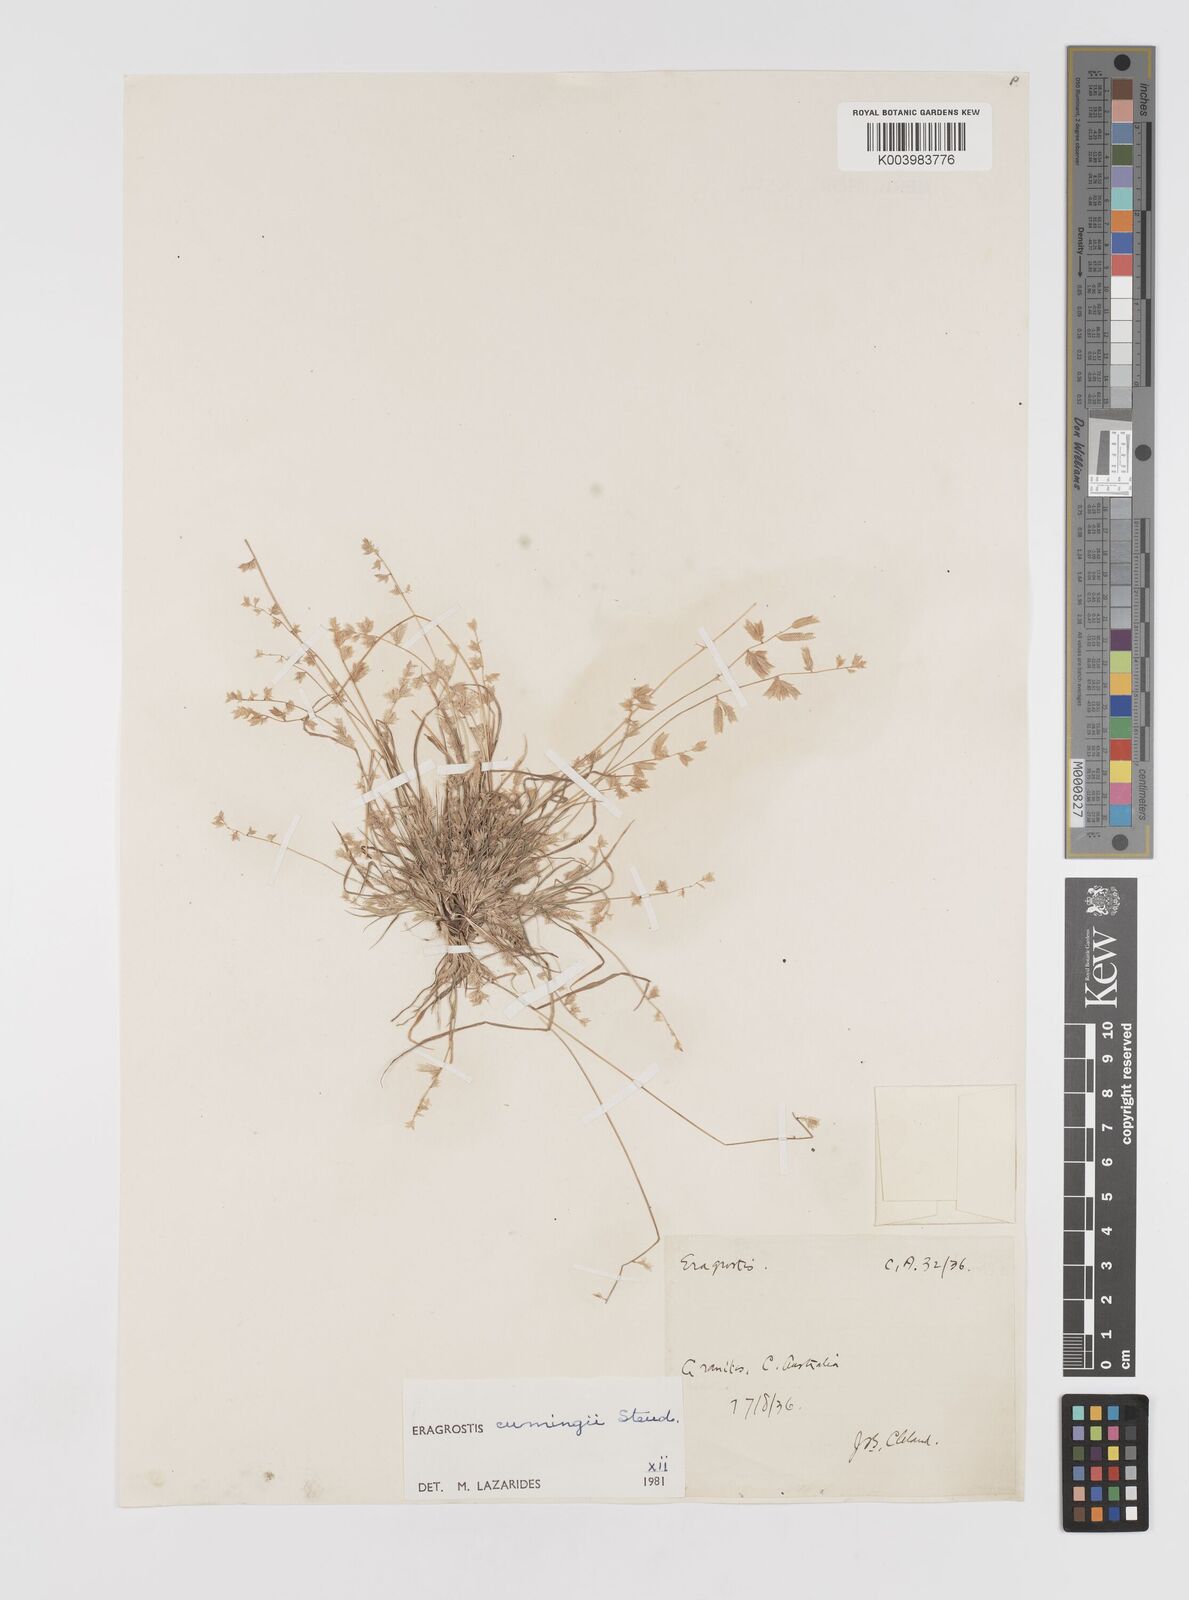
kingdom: Plantae
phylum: Tracheophyta
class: Liliopsida
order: Poales
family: Poaceae
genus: Eragrostis
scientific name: Eragrostis cumingii
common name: Cuming's lovegrass
